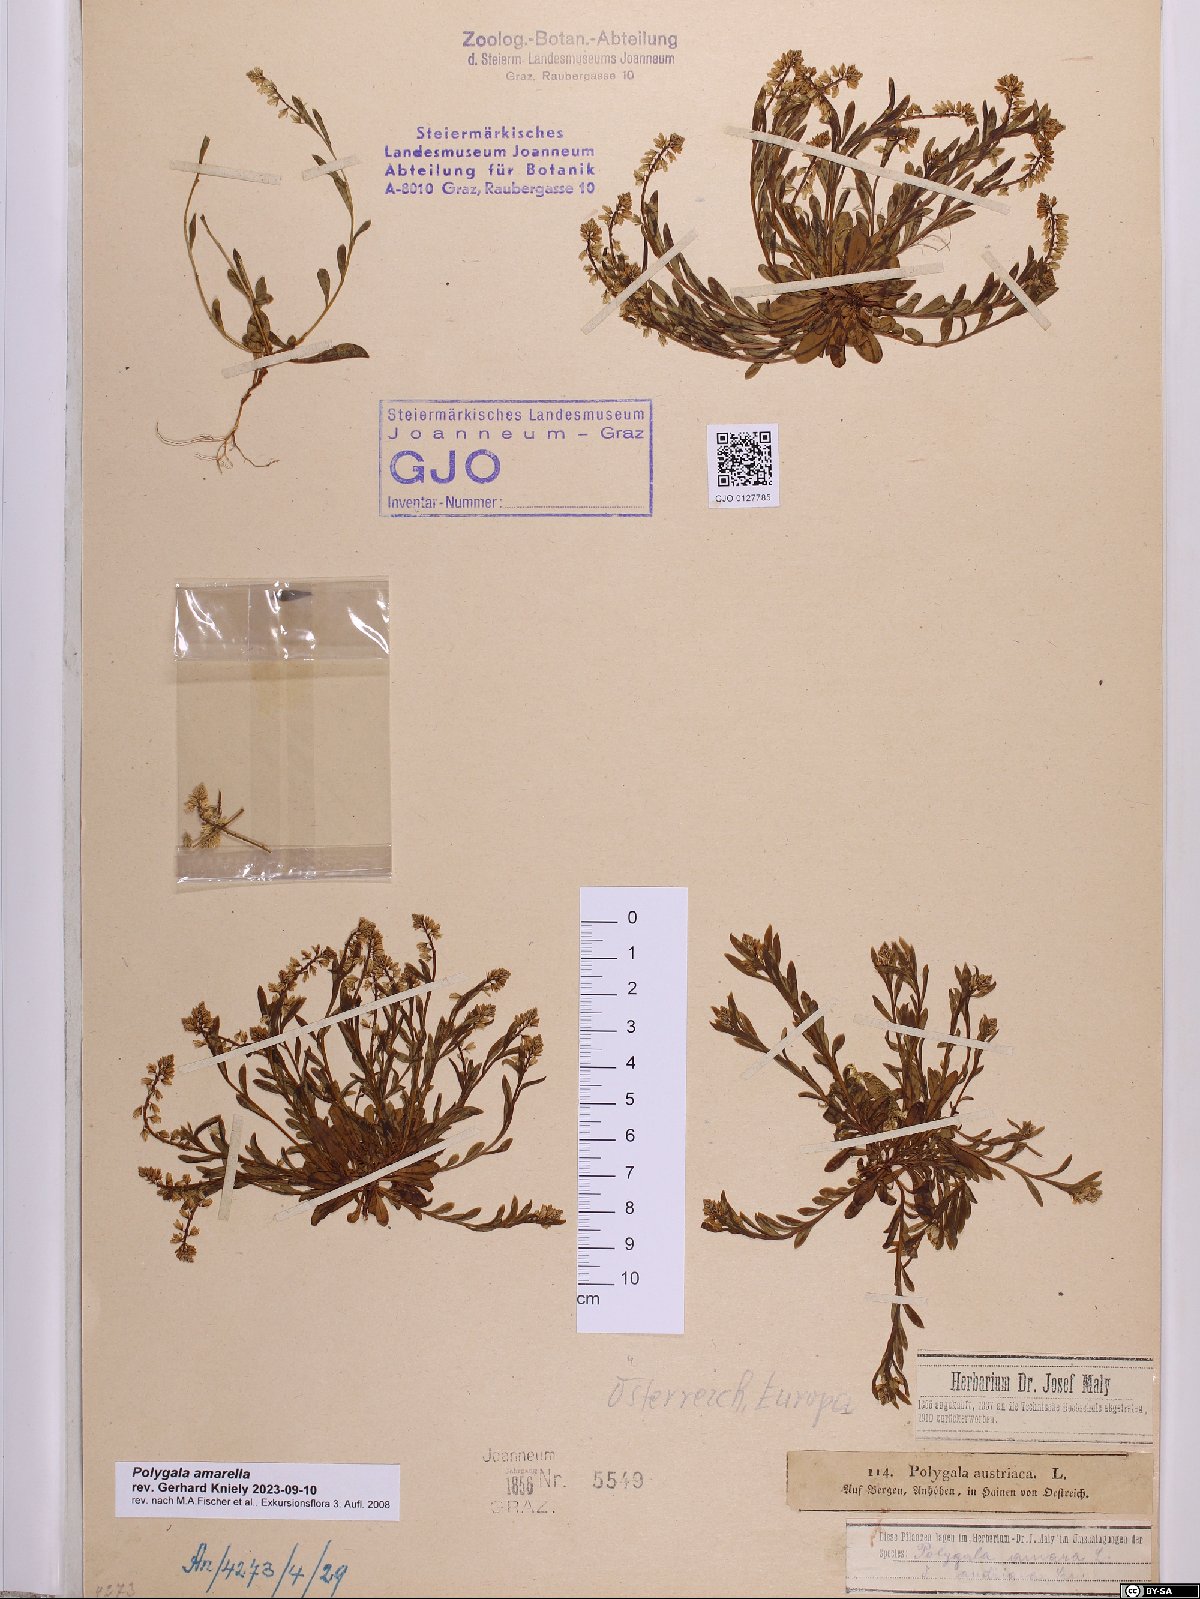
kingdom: Plantae
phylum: Tracheophyta
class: Magnoliopsida
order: Fabales
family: Polygalaceae
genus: Polygala
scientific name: Polygala amarella
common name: Dwarf milkwort
